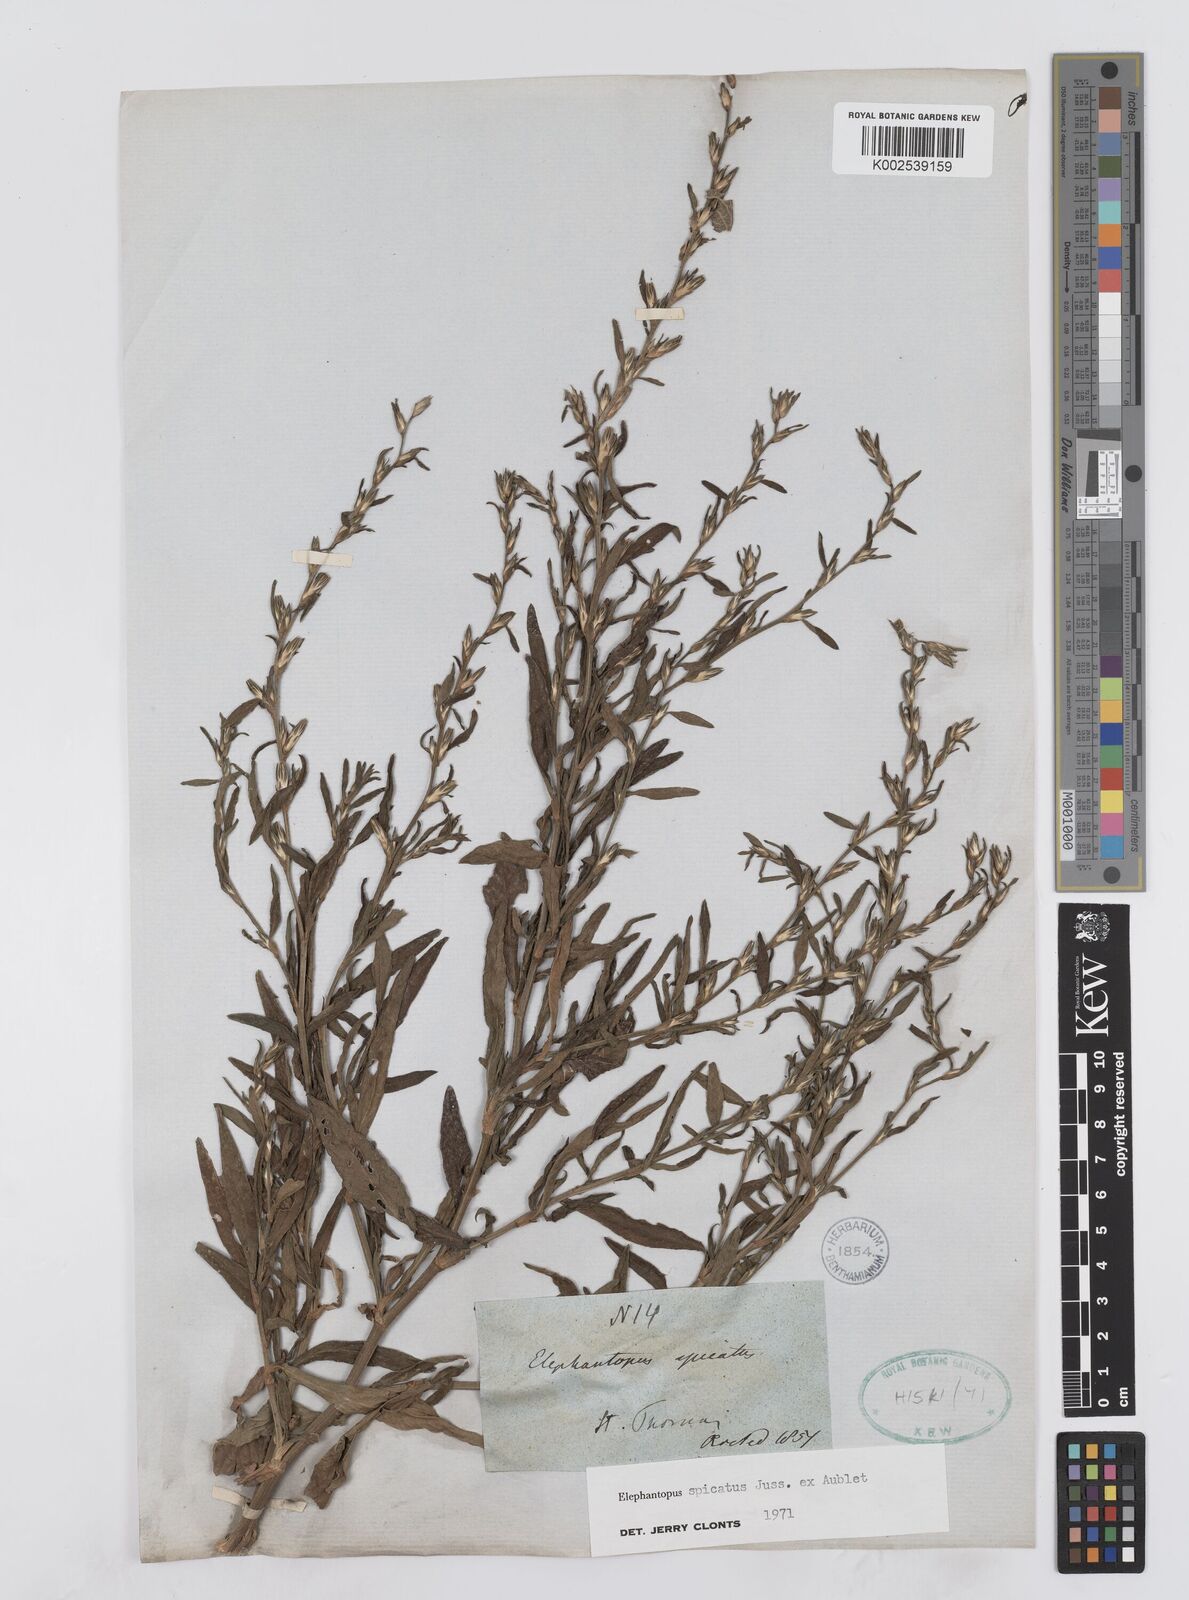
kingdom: Plantae
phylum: Tracheophyta
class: Magnoliopsida
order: Asterales
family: Asteraceae
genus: Pseudelephantopus
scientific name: Pseudelephantopus spicatus
